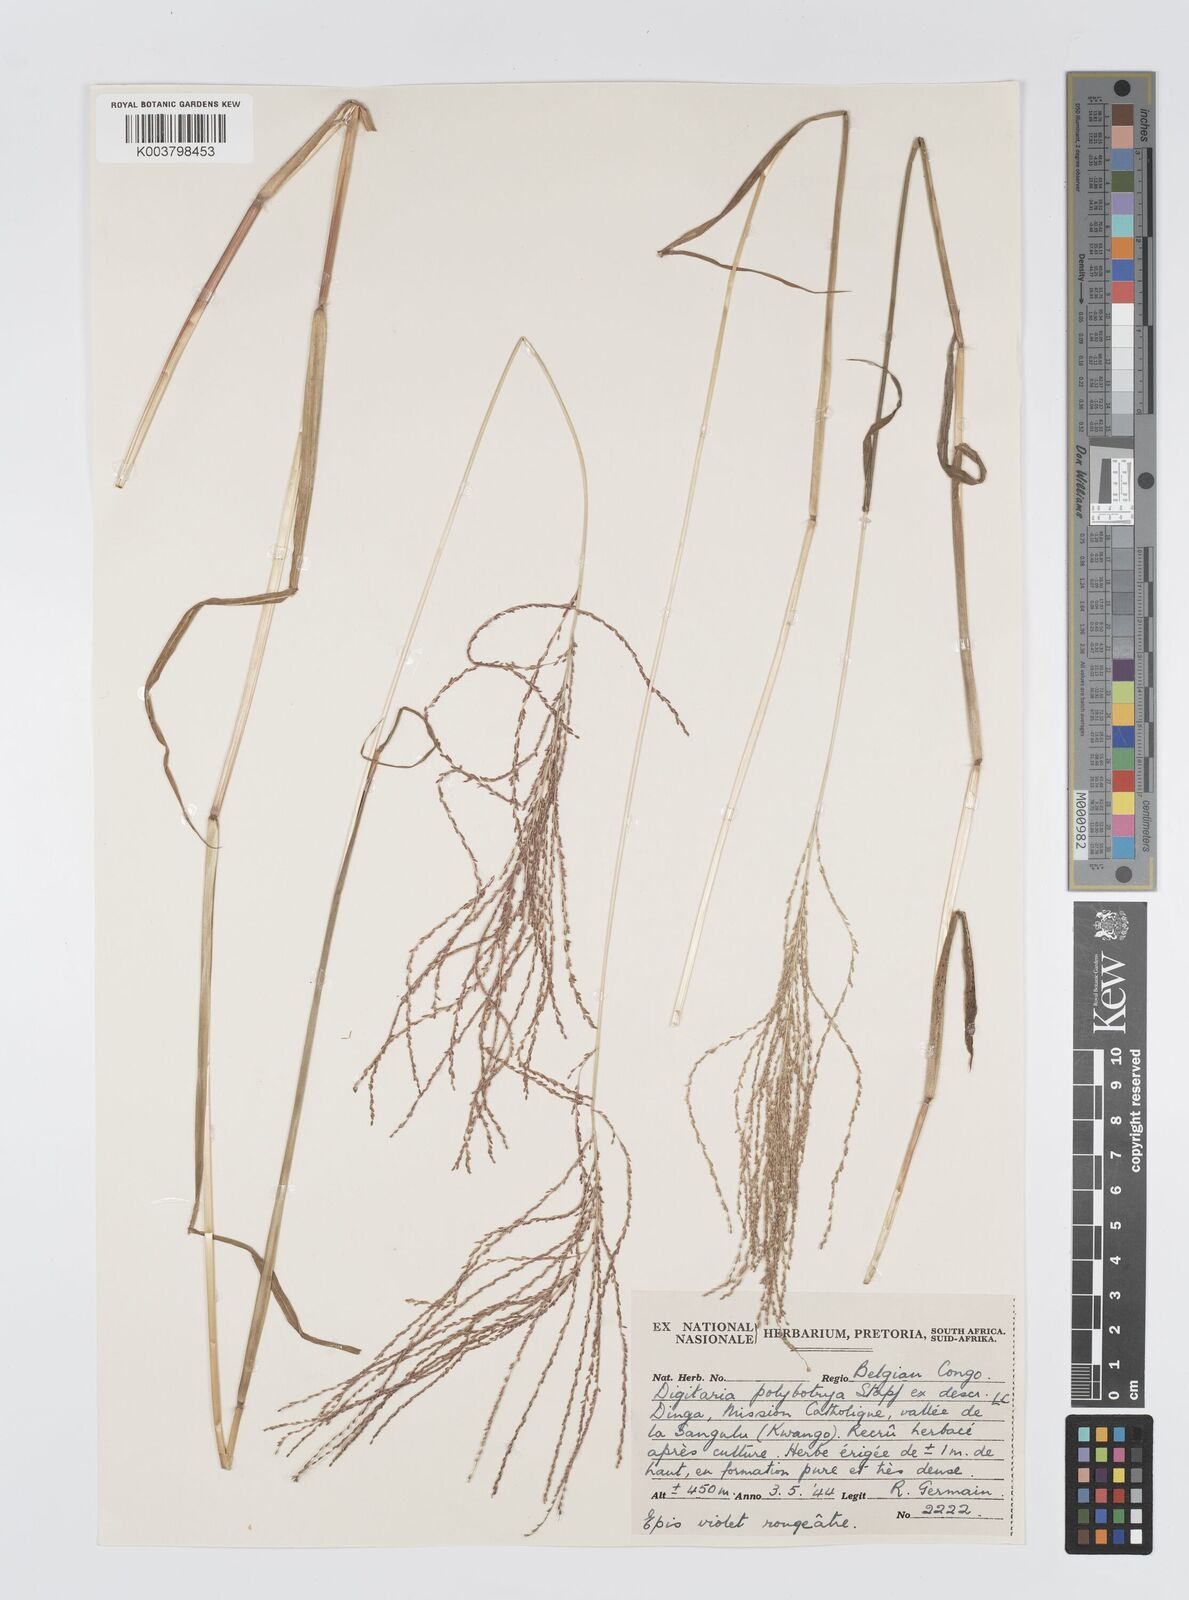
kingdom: Plantae
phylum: Tracheophyta
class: Liliopsida
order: Poales
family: Poaceae
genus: Digitaria
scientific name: Digitaria leptorhachis
